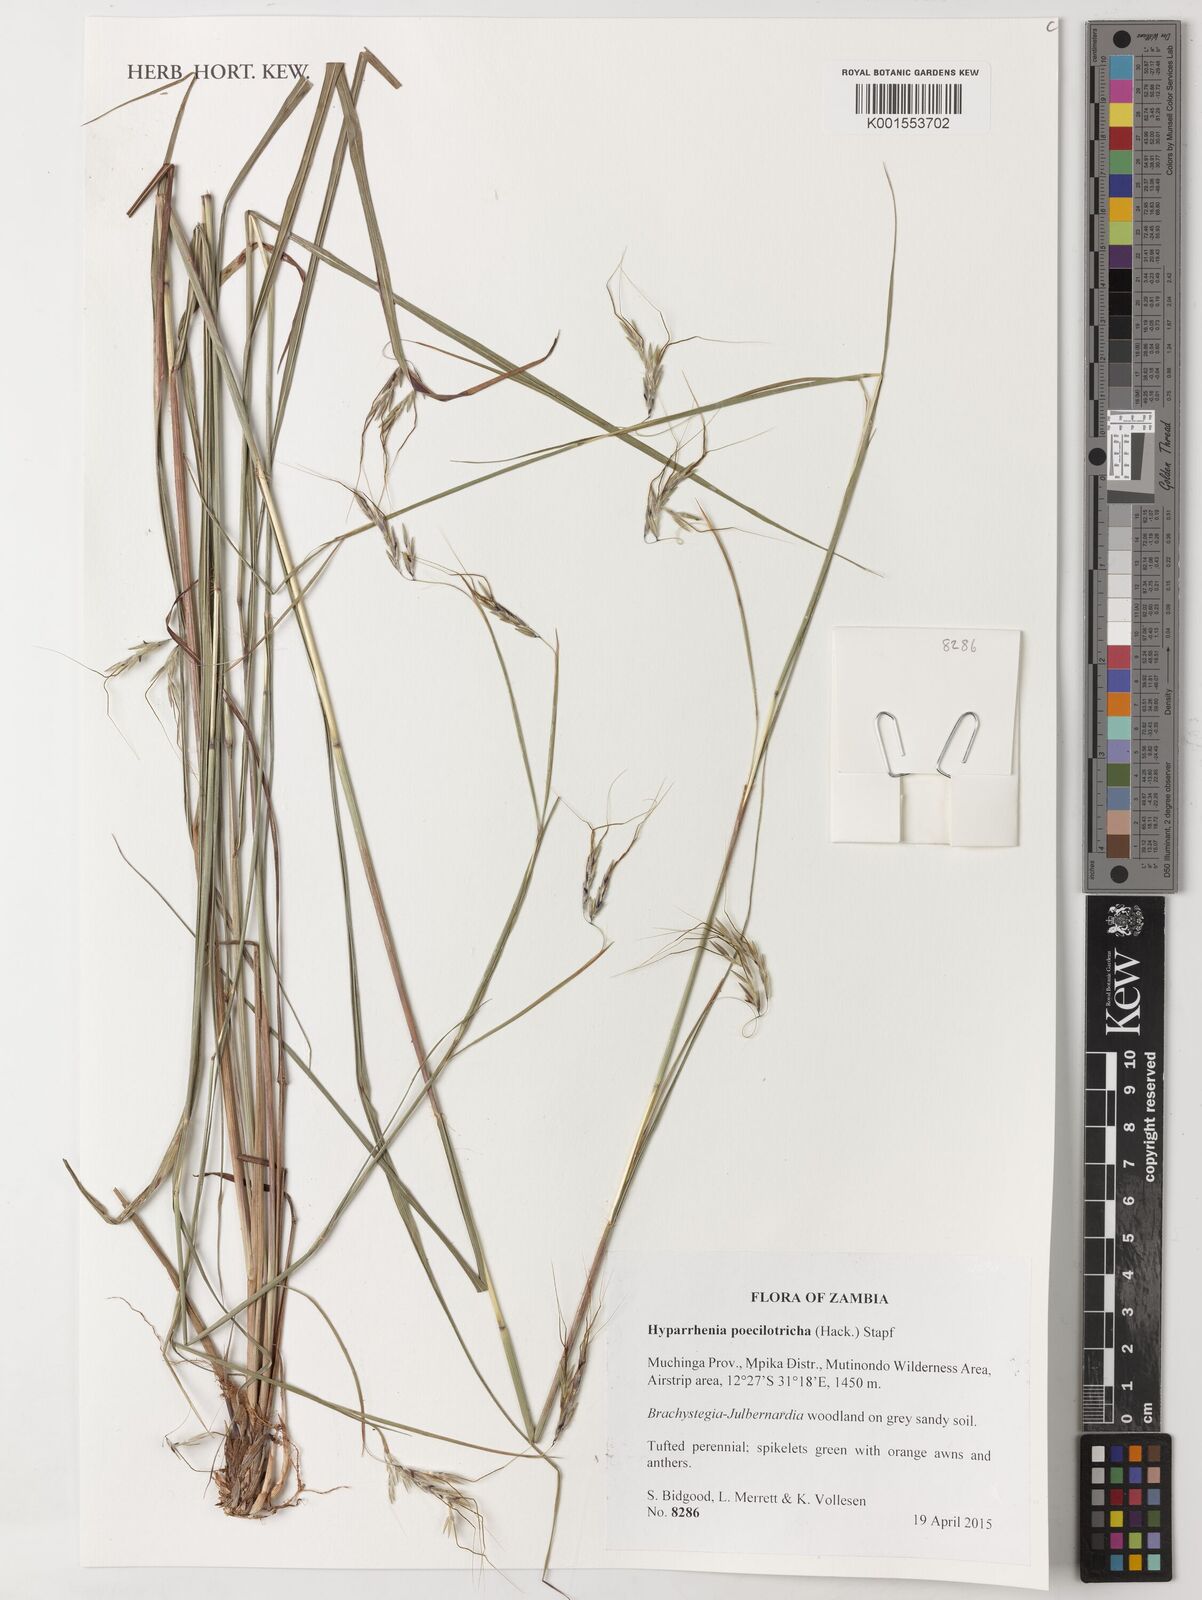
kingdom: Plantae
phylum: Tracheophyta
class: Liliopsida
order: Poales
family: Poaceae
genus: Hyparrhenia
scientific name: Hyparrhenia poecilotricha
